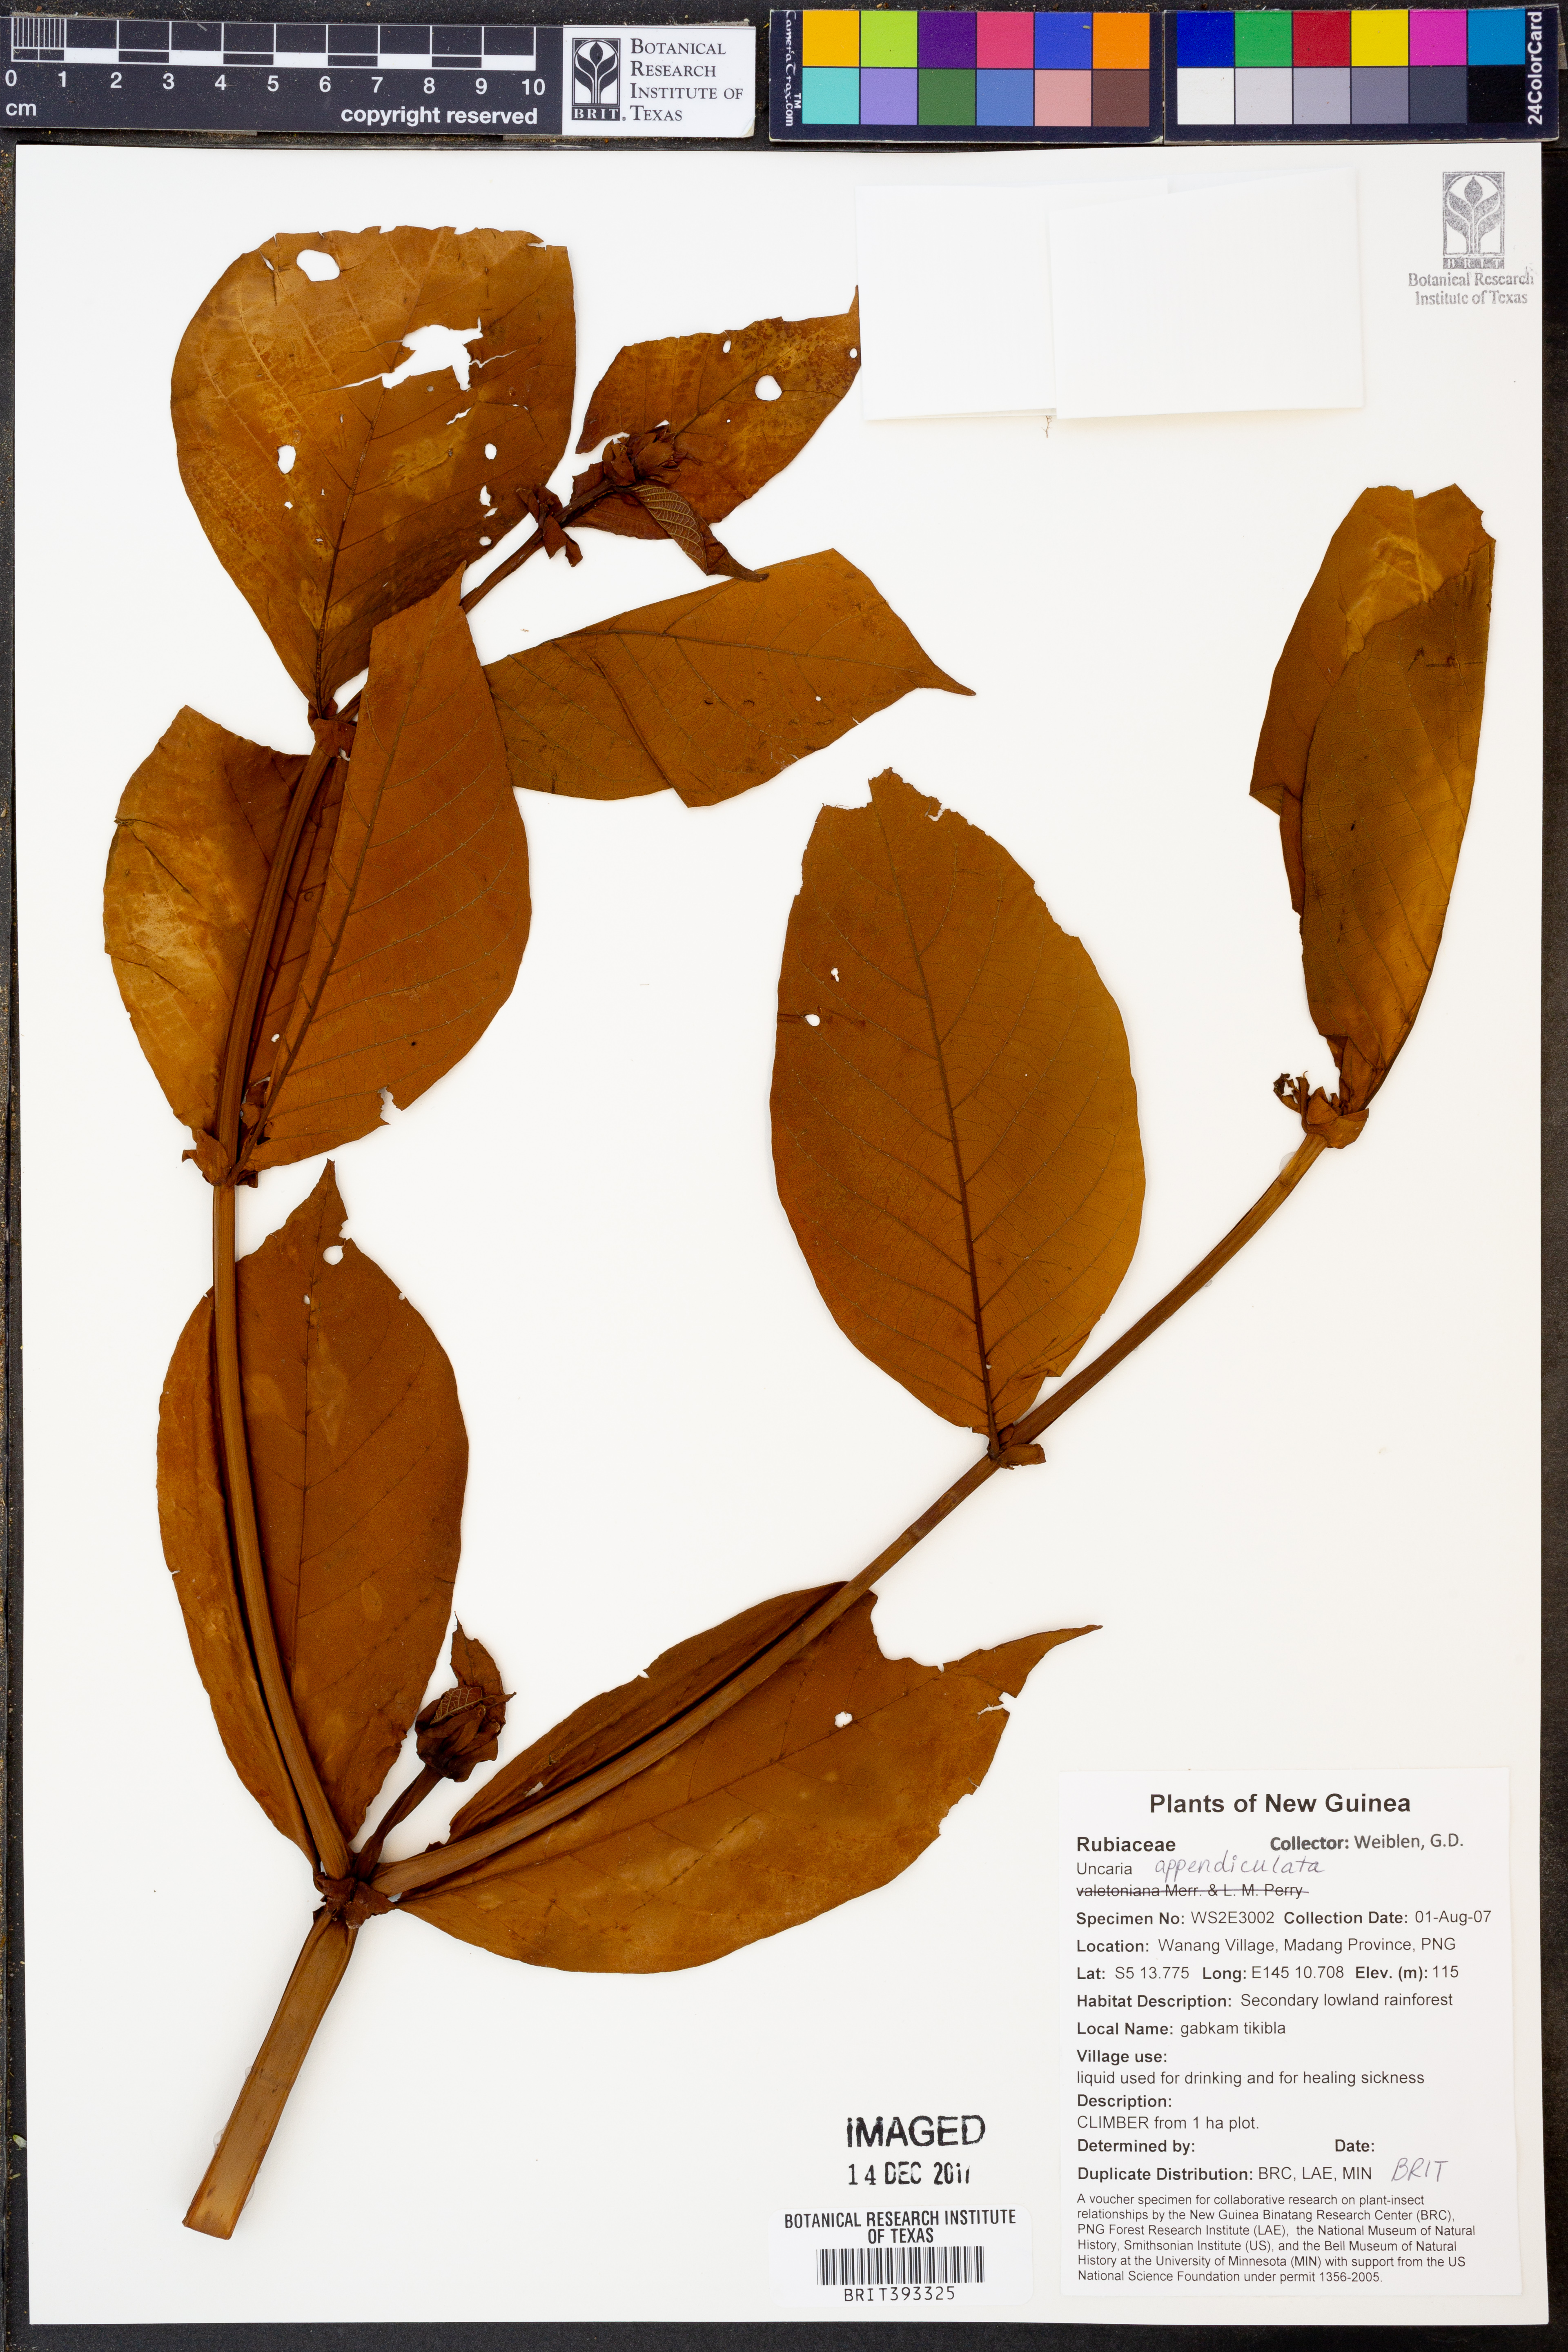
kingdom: Plantae
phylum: Tracheophyta
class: Magnoliopsida
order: Gentianales
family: Rubiaceae
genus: Uncaria
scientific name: Uncaria lanosa
